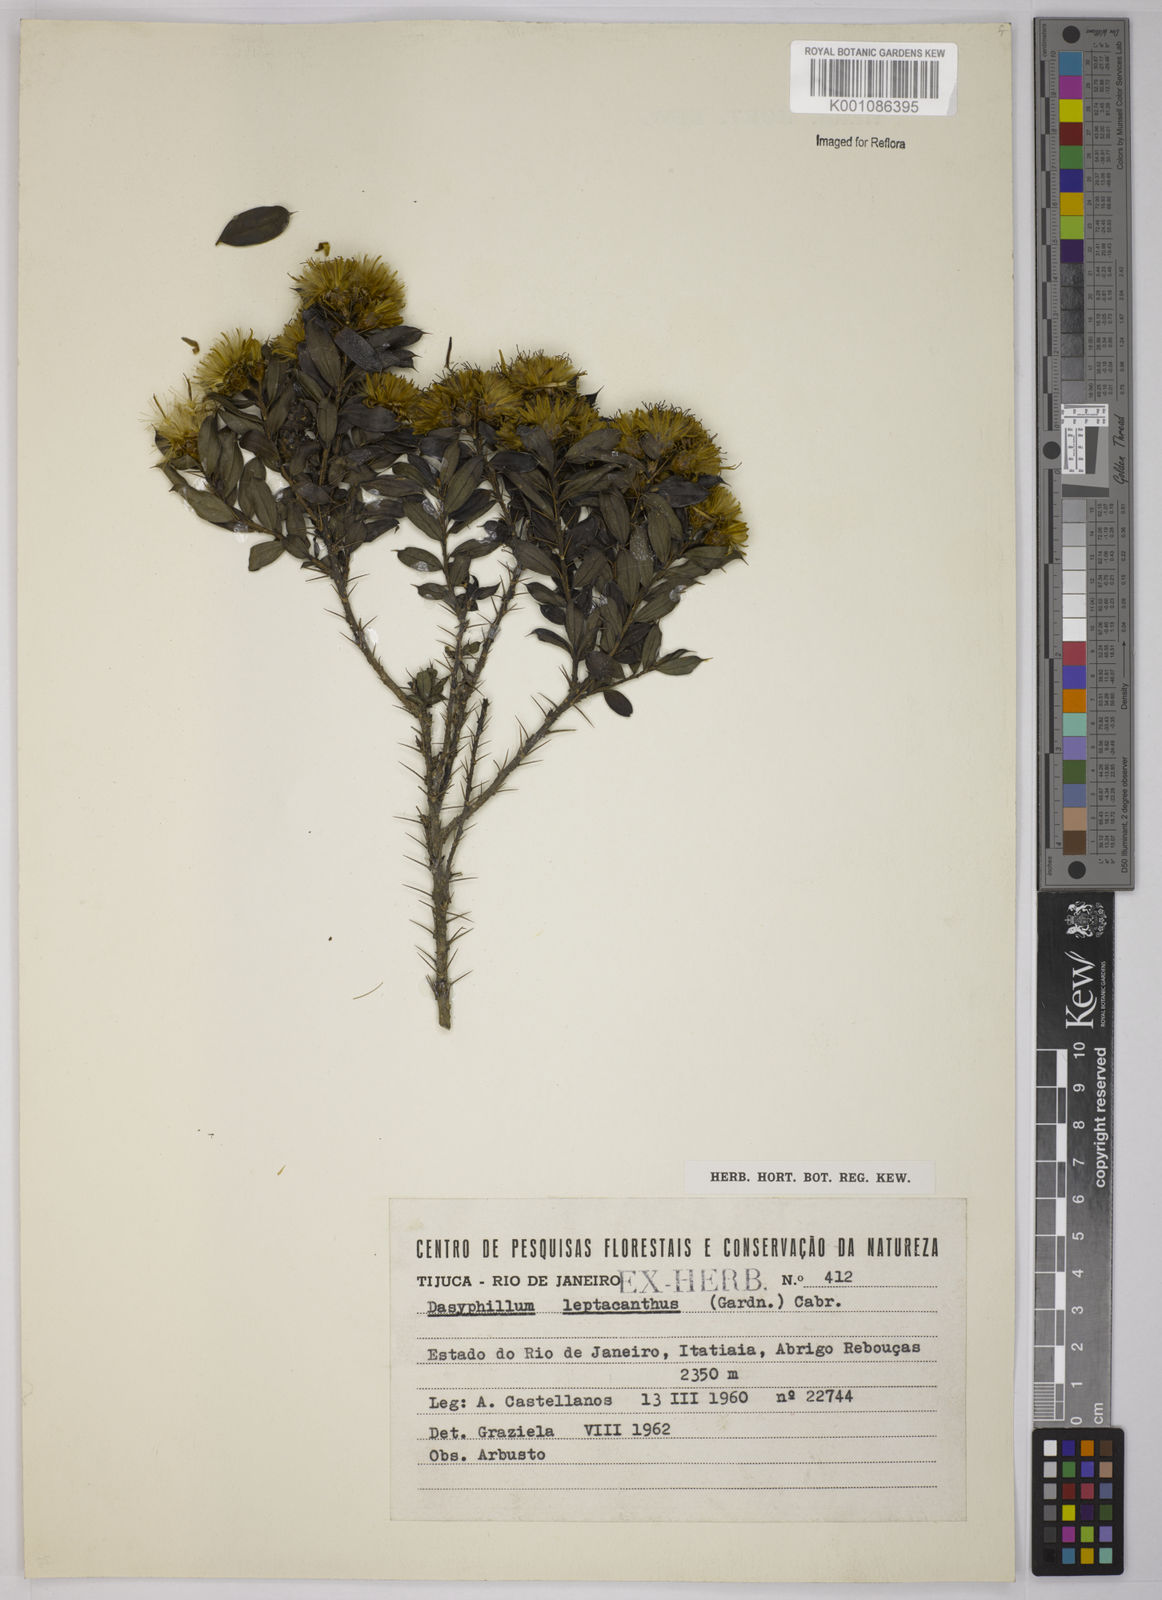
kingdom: Plantae
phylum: Tracheophyta
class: Magnoliopsida
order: Asterales
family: Asteraceae
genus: Dasyphyllum
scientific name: Dasyphyllum leptacanthum
